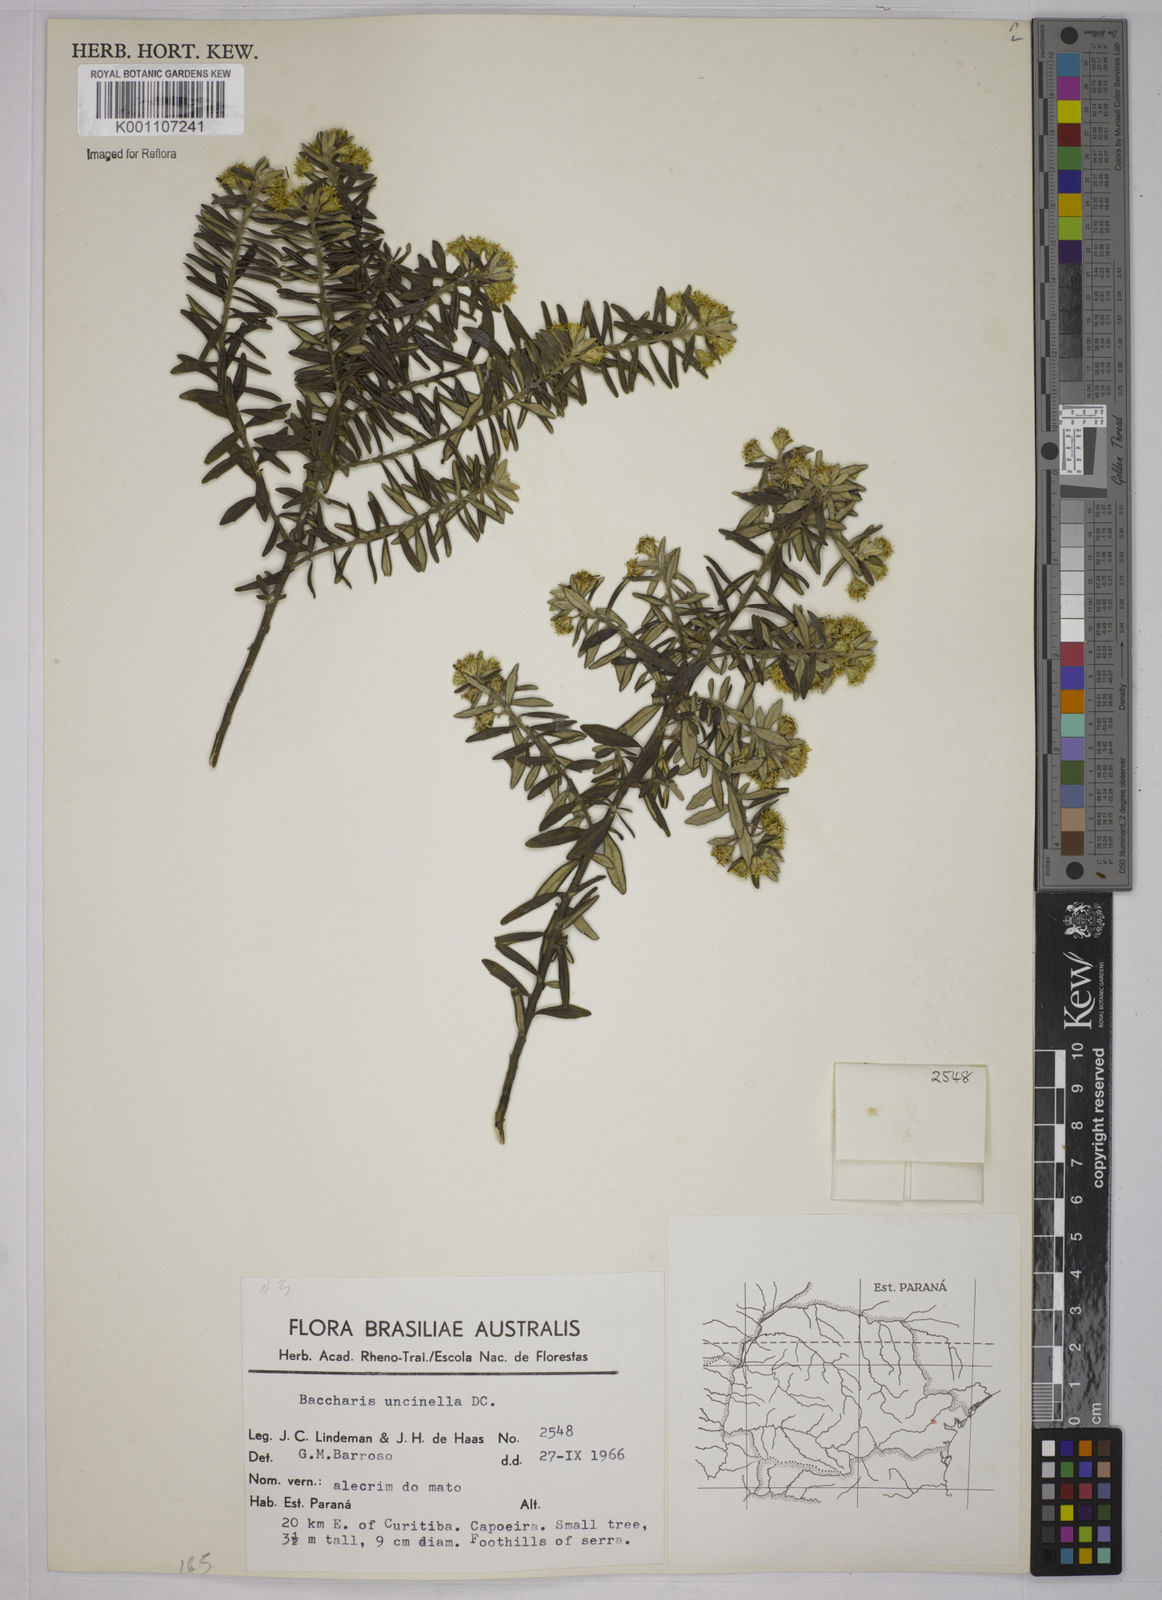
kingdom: Plantae
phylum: Tracheophyta
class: Magnoliopsida
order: Asterales
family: Asteraceae
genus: Baccharis
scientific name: Baccharis uncinella
